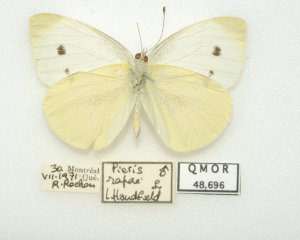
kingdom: Animalia
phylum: Arthropoda
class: Insecta
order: Lepidoptera
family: Pieridae
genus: Pieris
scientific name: Pieris rapae
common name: Cabbage White
